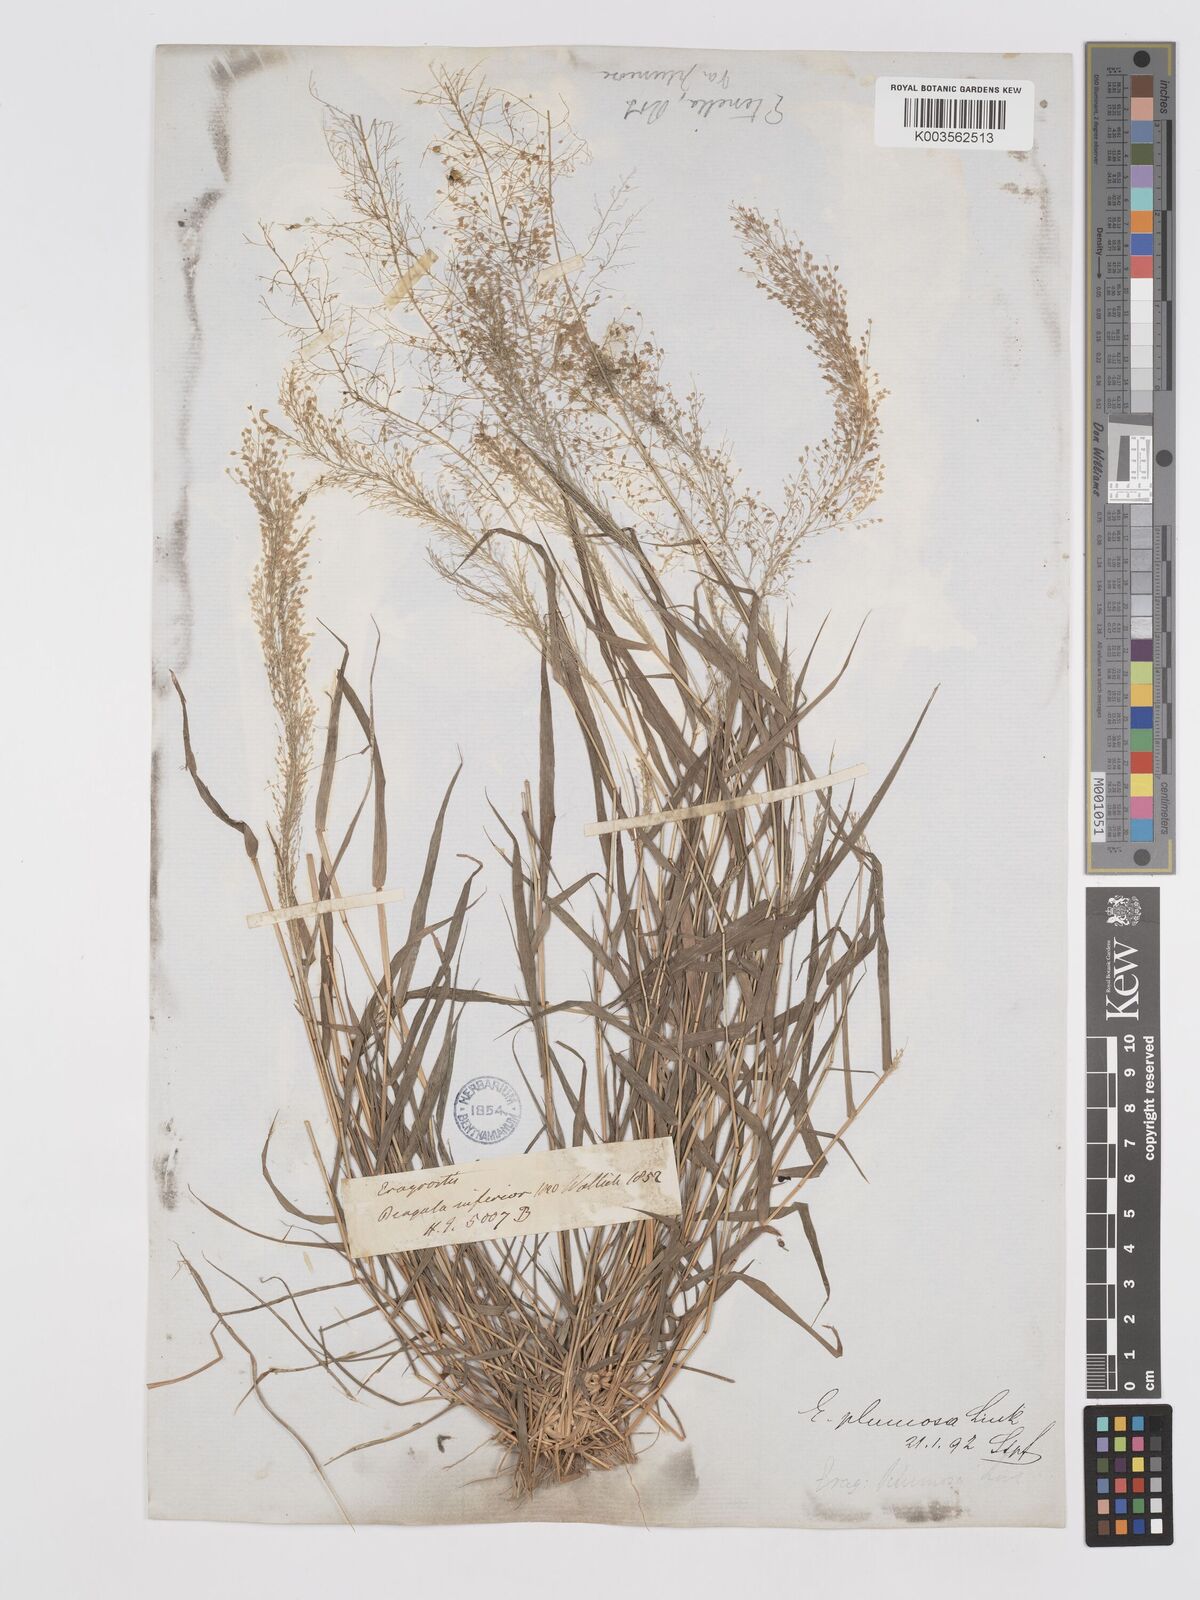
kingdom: Plantae
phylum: Tracheophyta
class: Liliopsida
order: Poales
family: Poaceae
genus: Eragrostis
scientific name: Eragrostis tenella
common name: Japanese lovegrass
